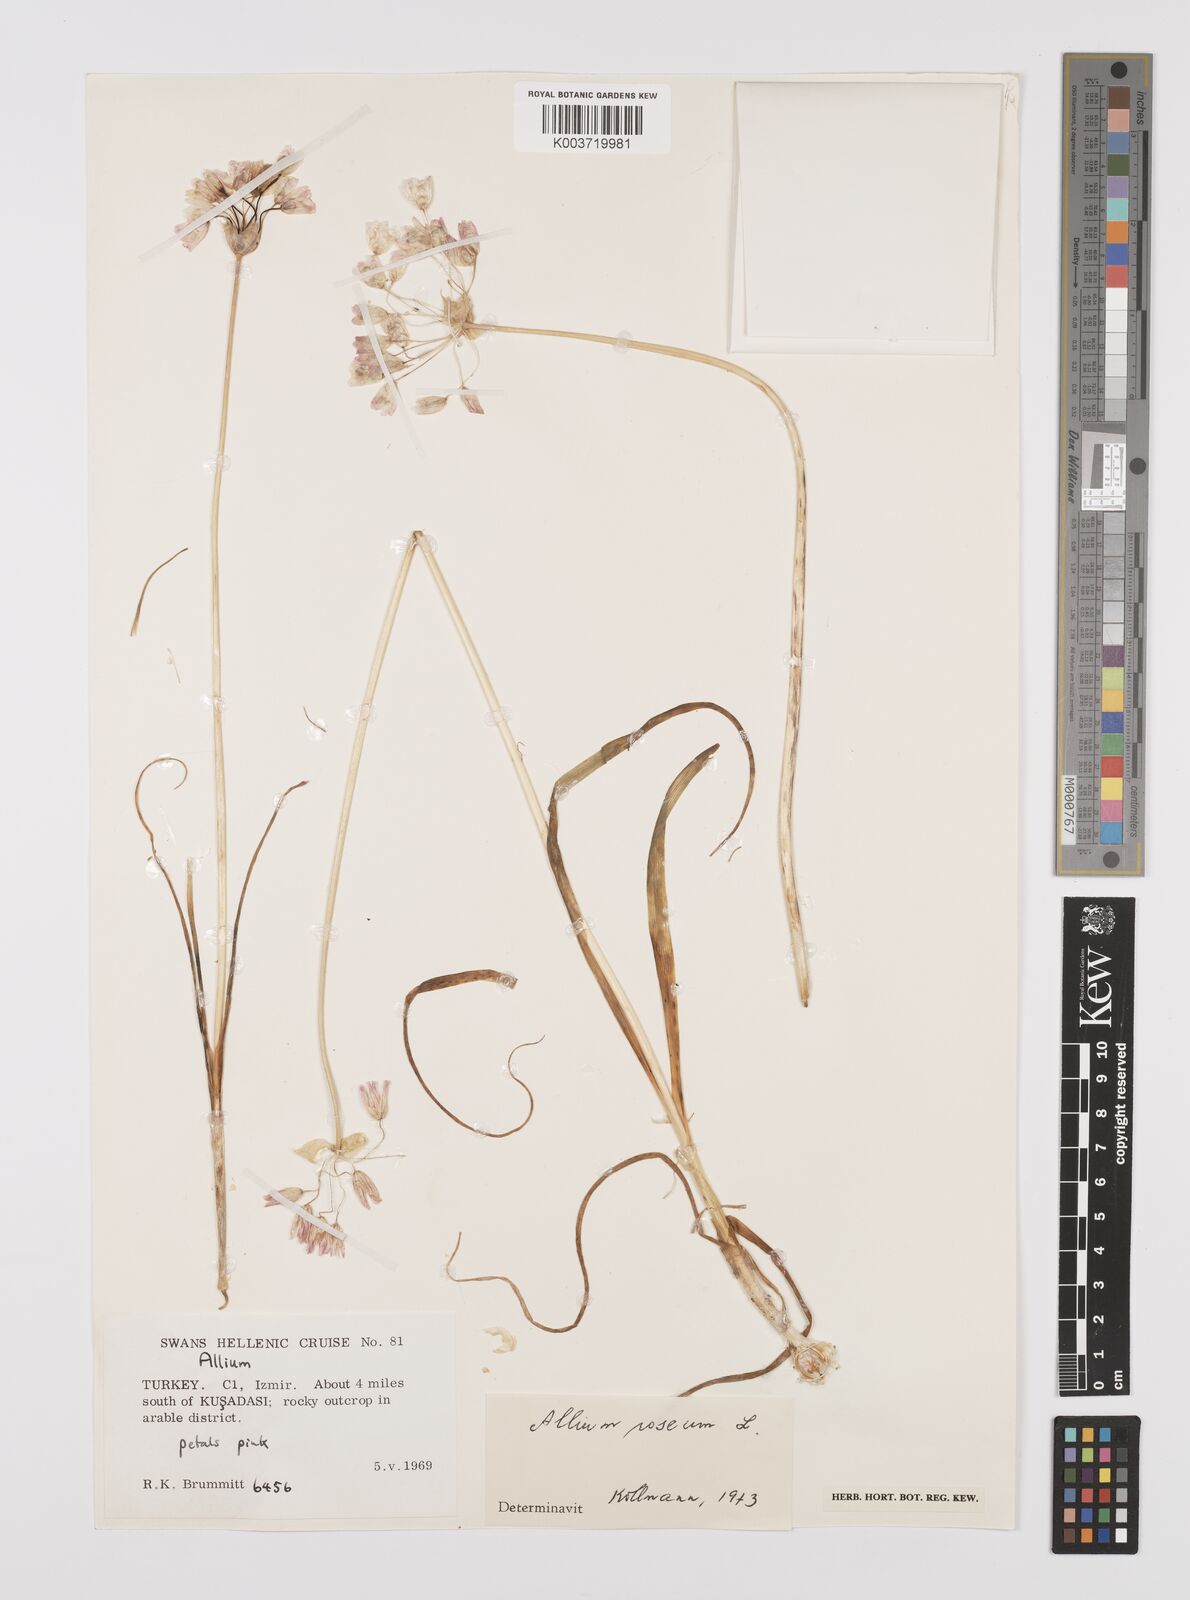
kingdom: Plantae
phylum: Tracheophyta
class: Liliopsida
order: Asparagales
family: Amaryllidaceae
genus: Allium
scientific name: Allium roseum
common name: Rosy garlic
